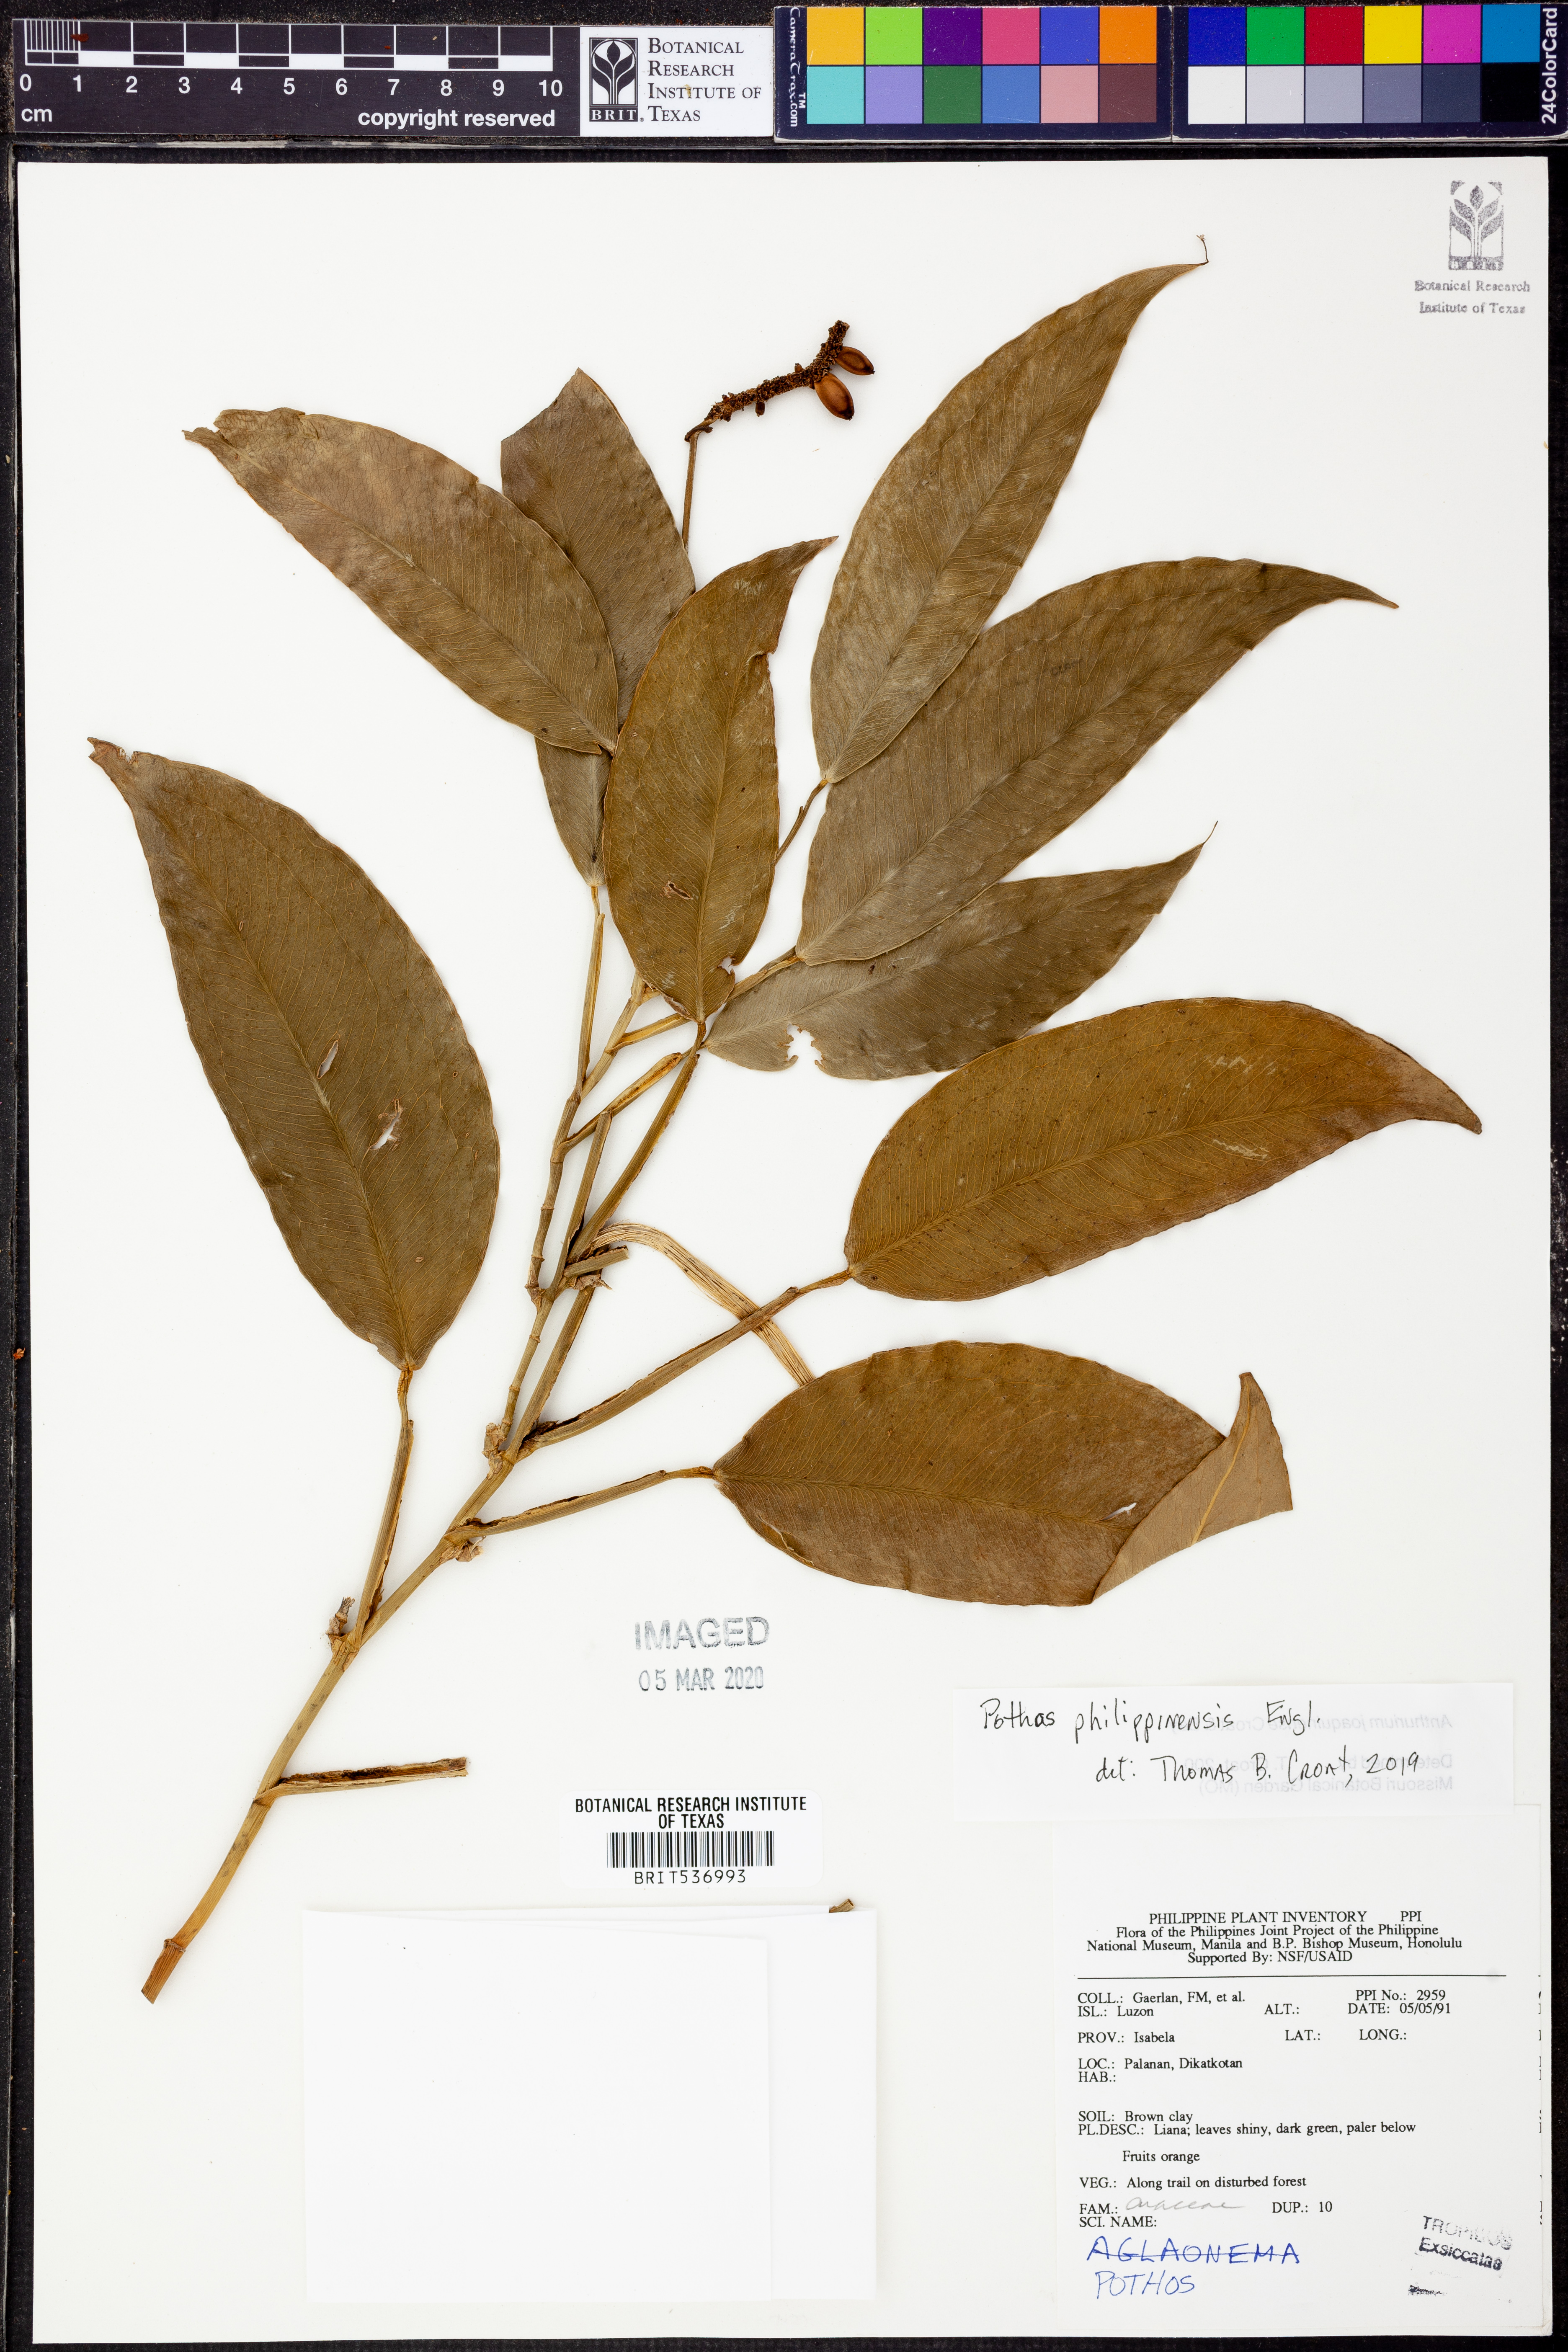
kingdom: Plantae
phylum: Tracheophyta
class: Liliopsida
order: Alismatales
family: Araceae
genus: Pothos
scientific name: Pothos philippinensis
